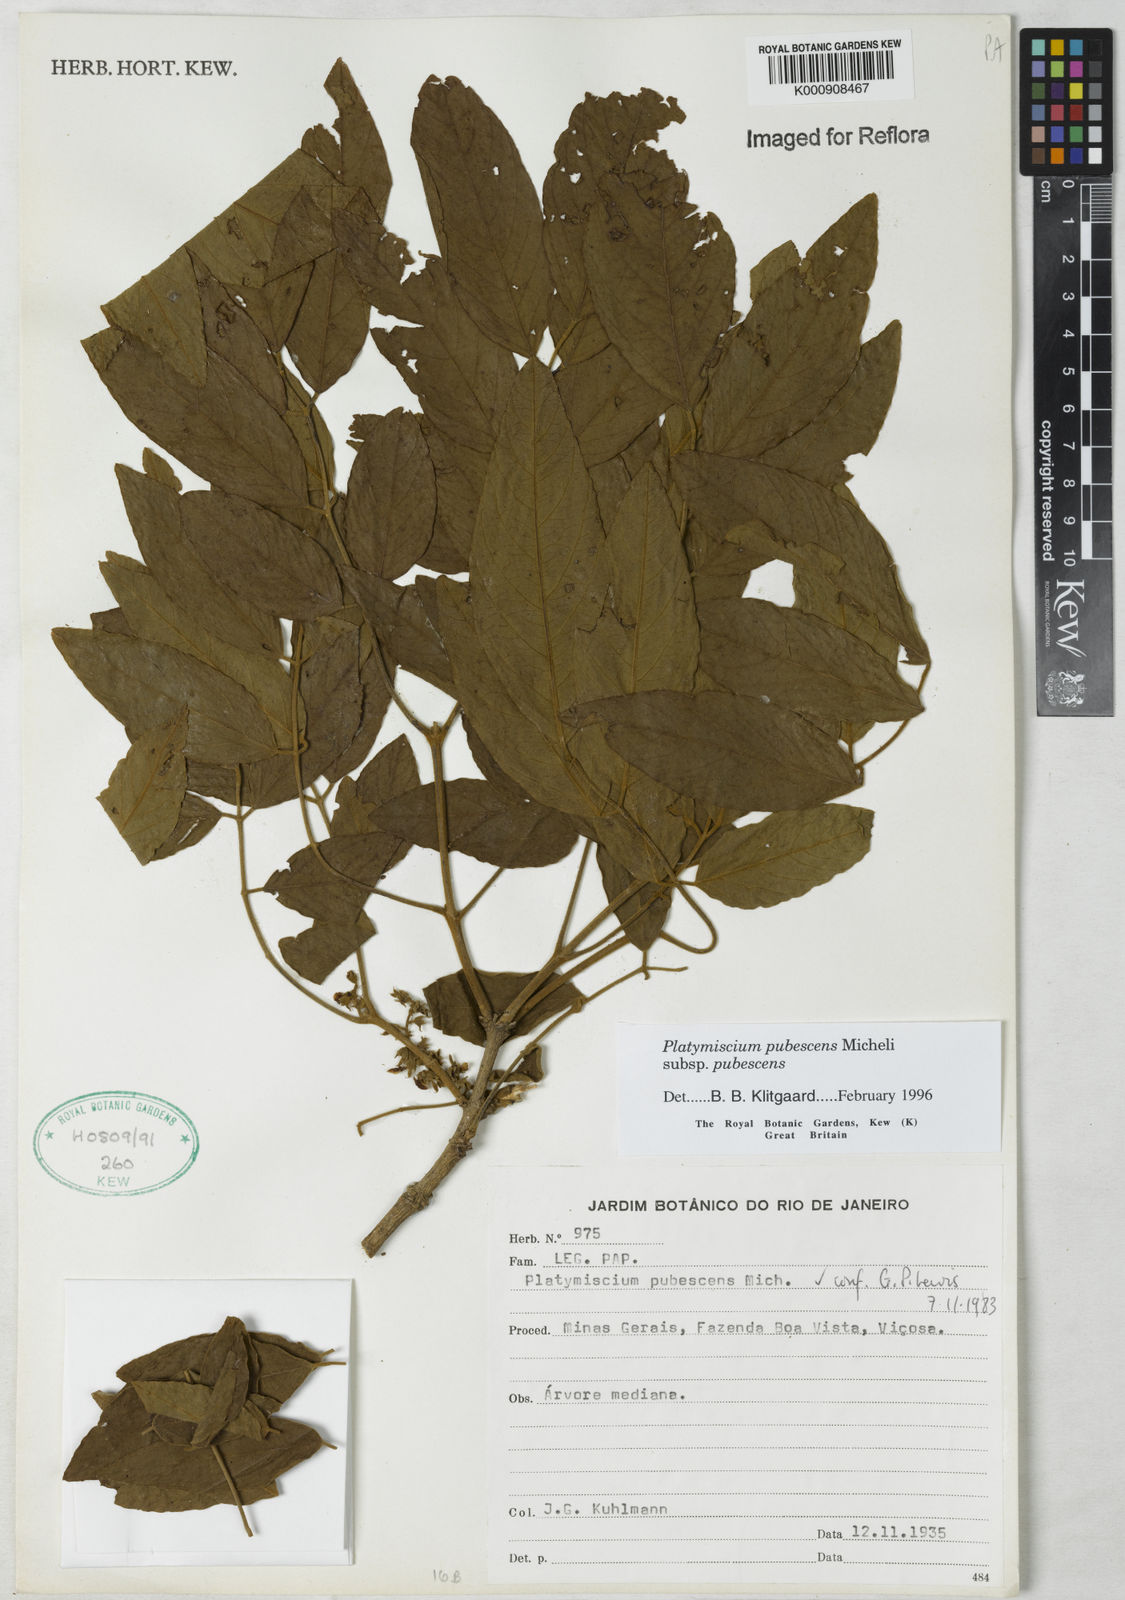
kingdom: Plantae
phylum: Tracheophyta
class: Magnoliopsida
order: Fabales
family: Fabaceae
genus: Platymiscium
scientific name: Platymiscium pubescens
